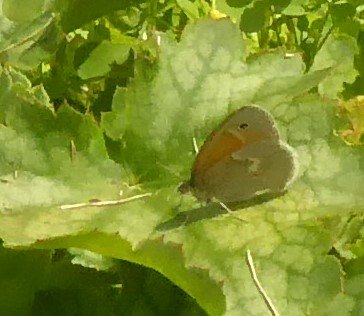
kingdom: Animalia
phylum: Arthropoda
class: Insecta
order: Lepidoptera
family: Nymphalidae
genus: Coenonympha
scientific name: Coenonympha tullia
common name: Large Heath
